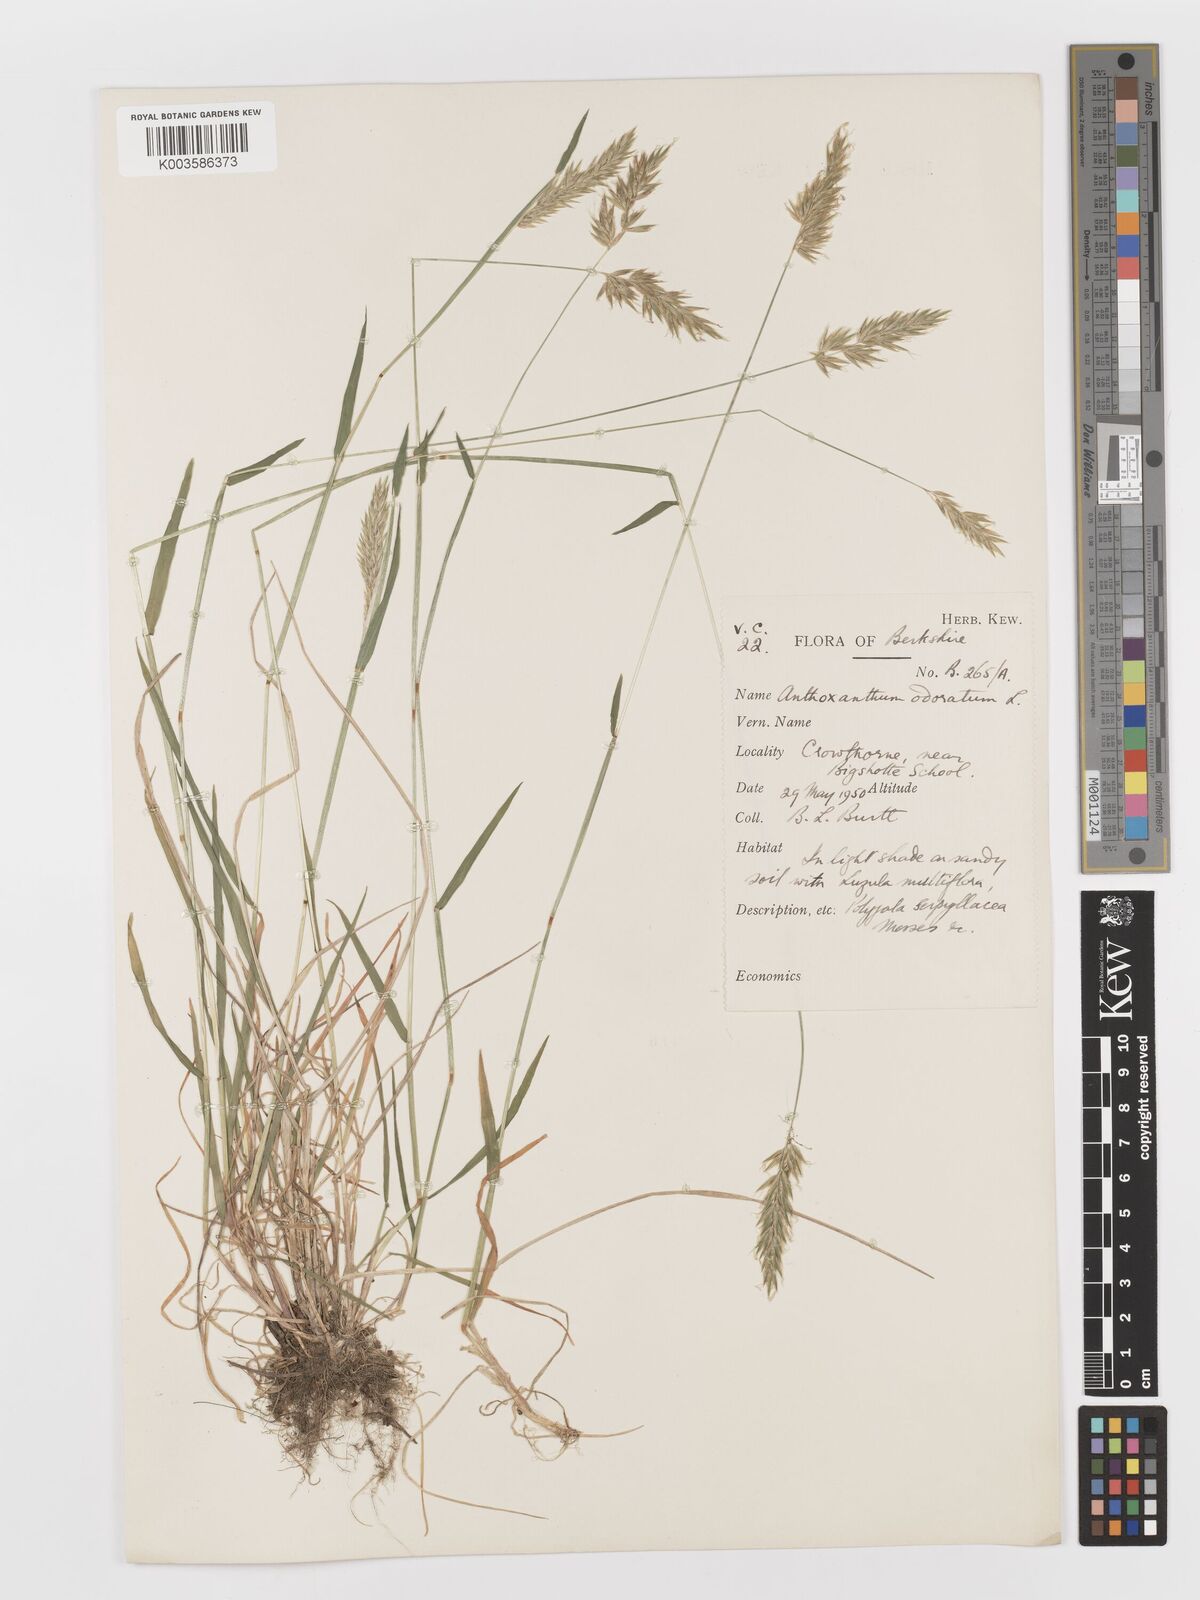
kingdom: Plantae
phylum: Tracheophyta
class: Liliopsida
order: Poales
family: Poaceae
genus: Anthoxanthum
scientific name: Anthoxanthum odoratum
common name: Sweet vernalgrass
